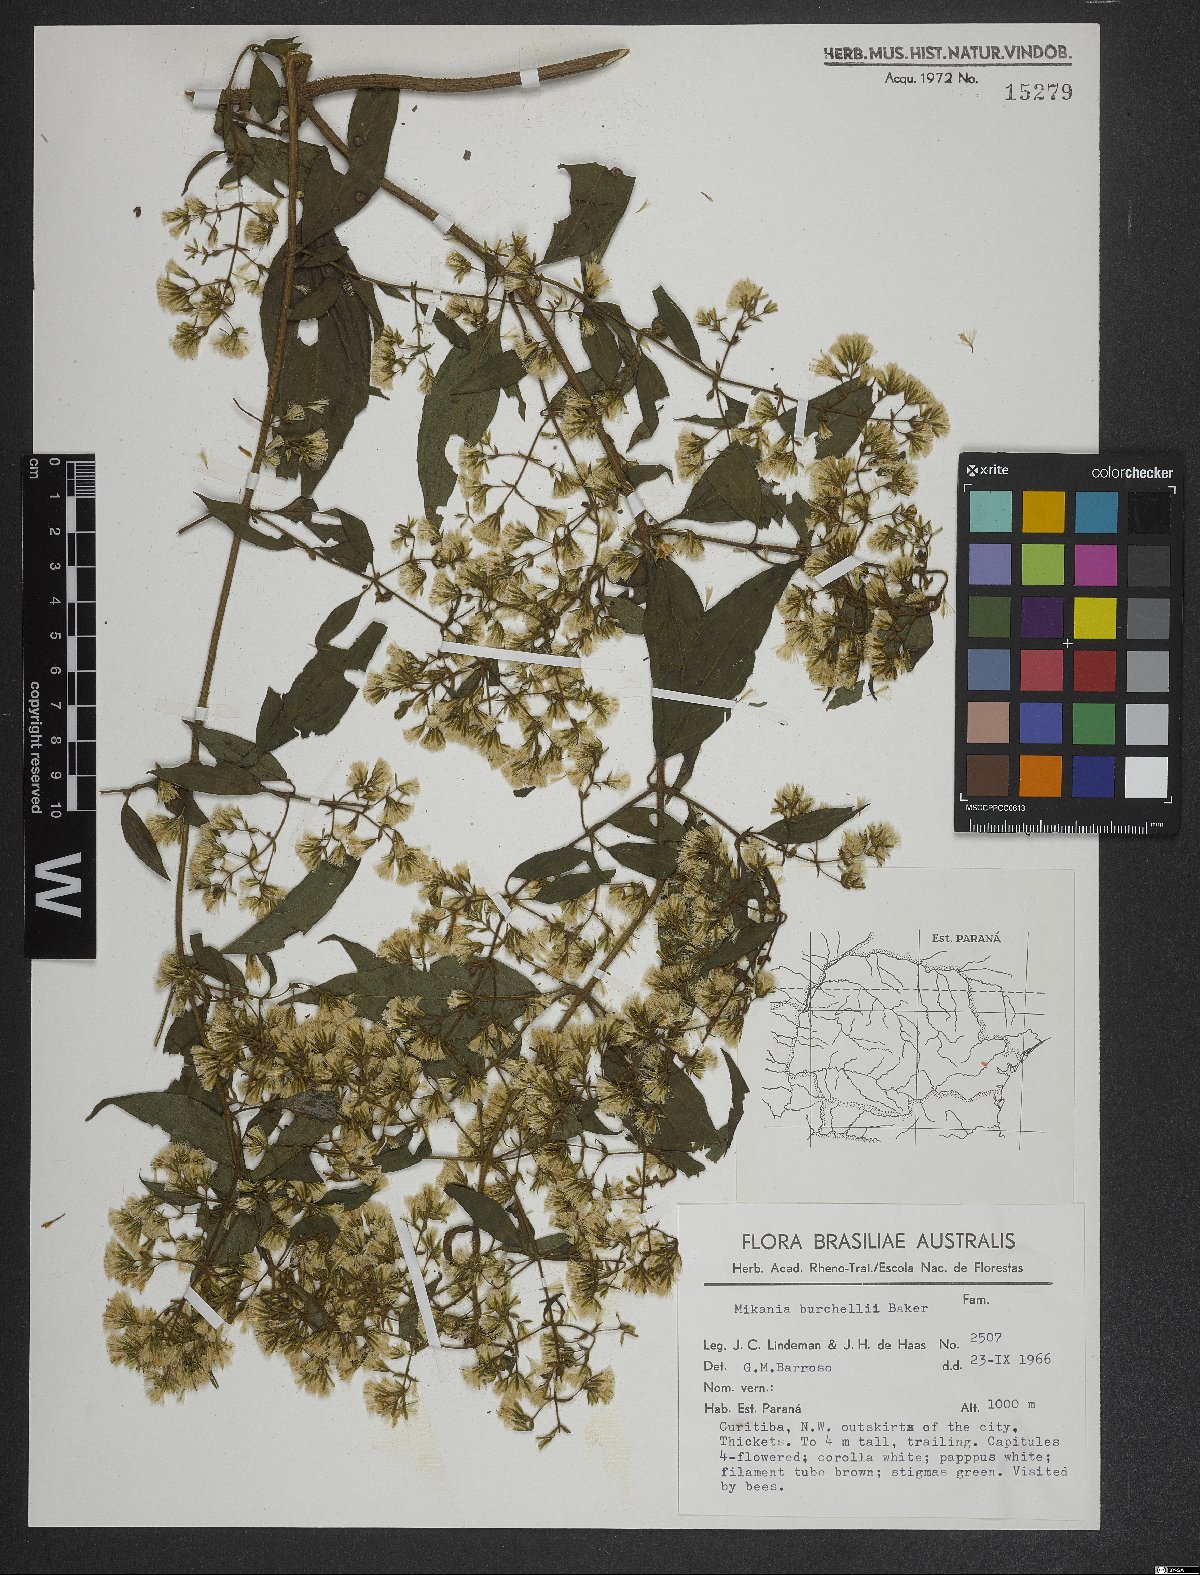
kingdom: Plantae
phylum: Tracheophyta
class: Magnoliopsida
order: Asterales
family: Asteraceae
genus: Mikania
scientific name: Mikania burchellii
